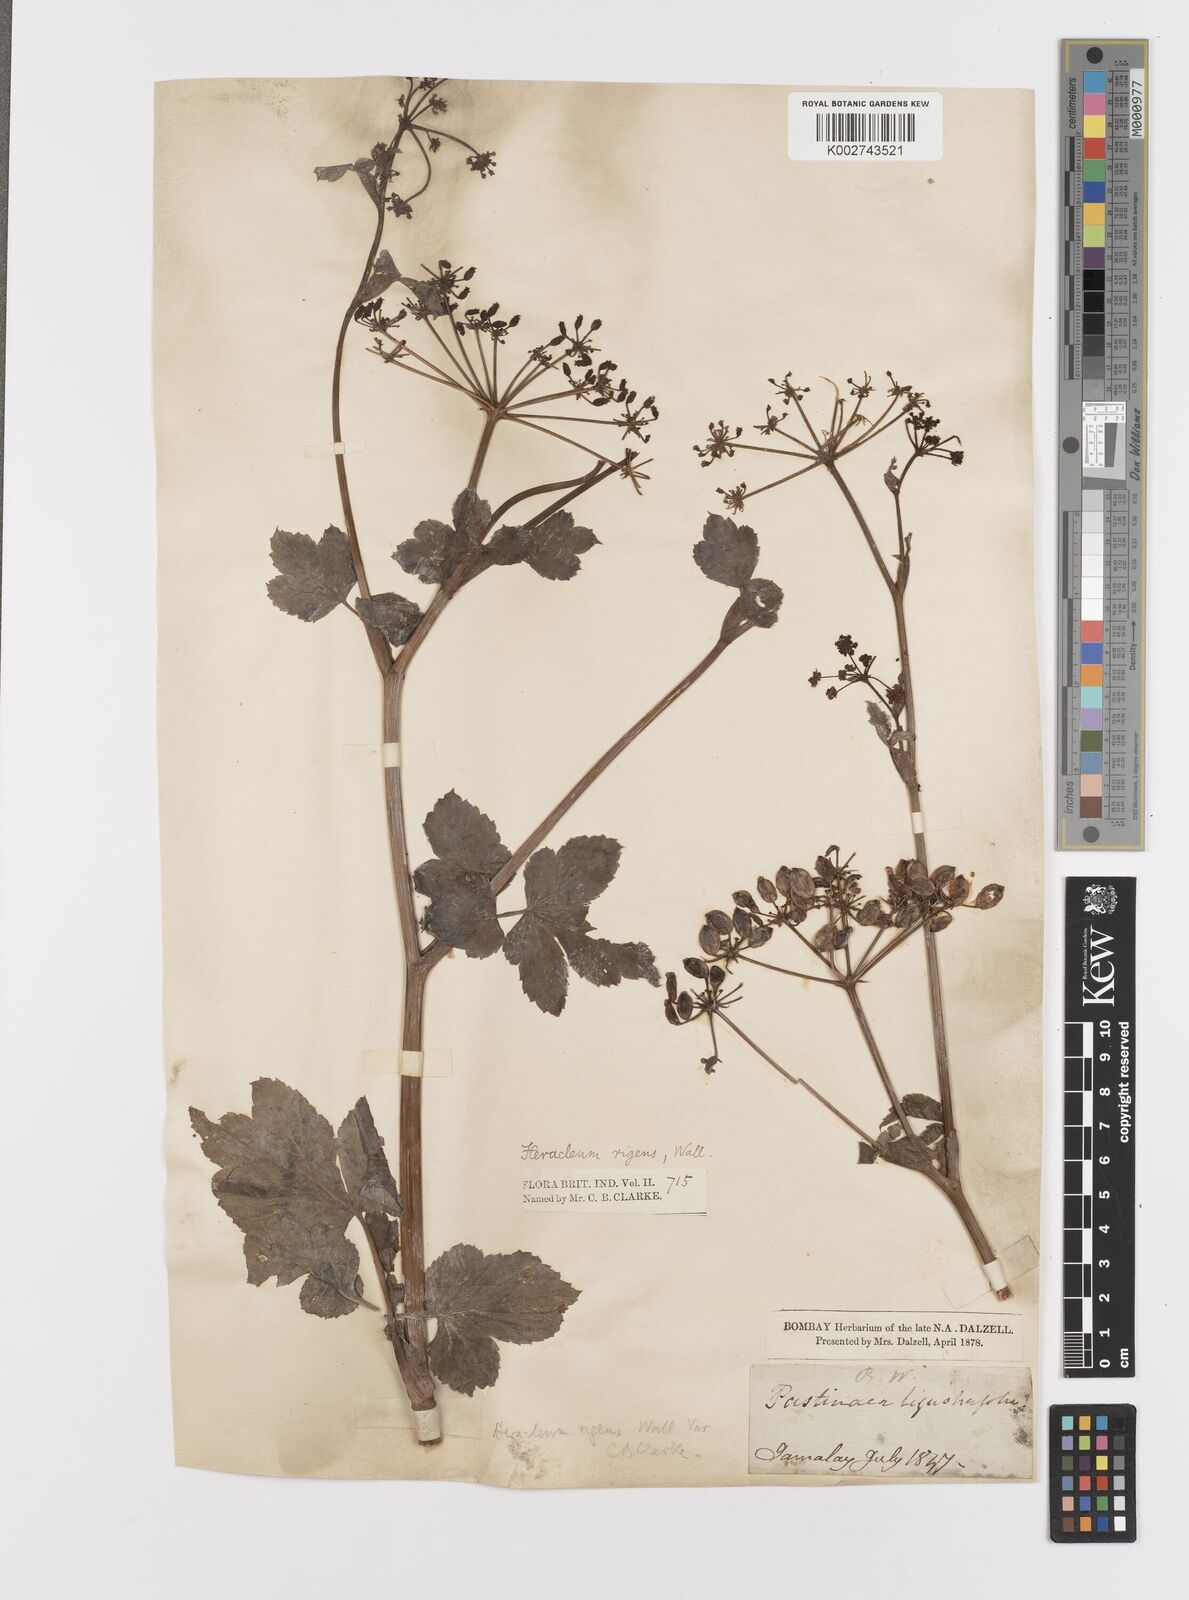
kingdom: Plantae
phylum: Tracheophyta
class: Magnoliopsida
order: Apiales
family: Apiaceae
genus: Tetrataenium
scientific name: Tetrataenium rigens
